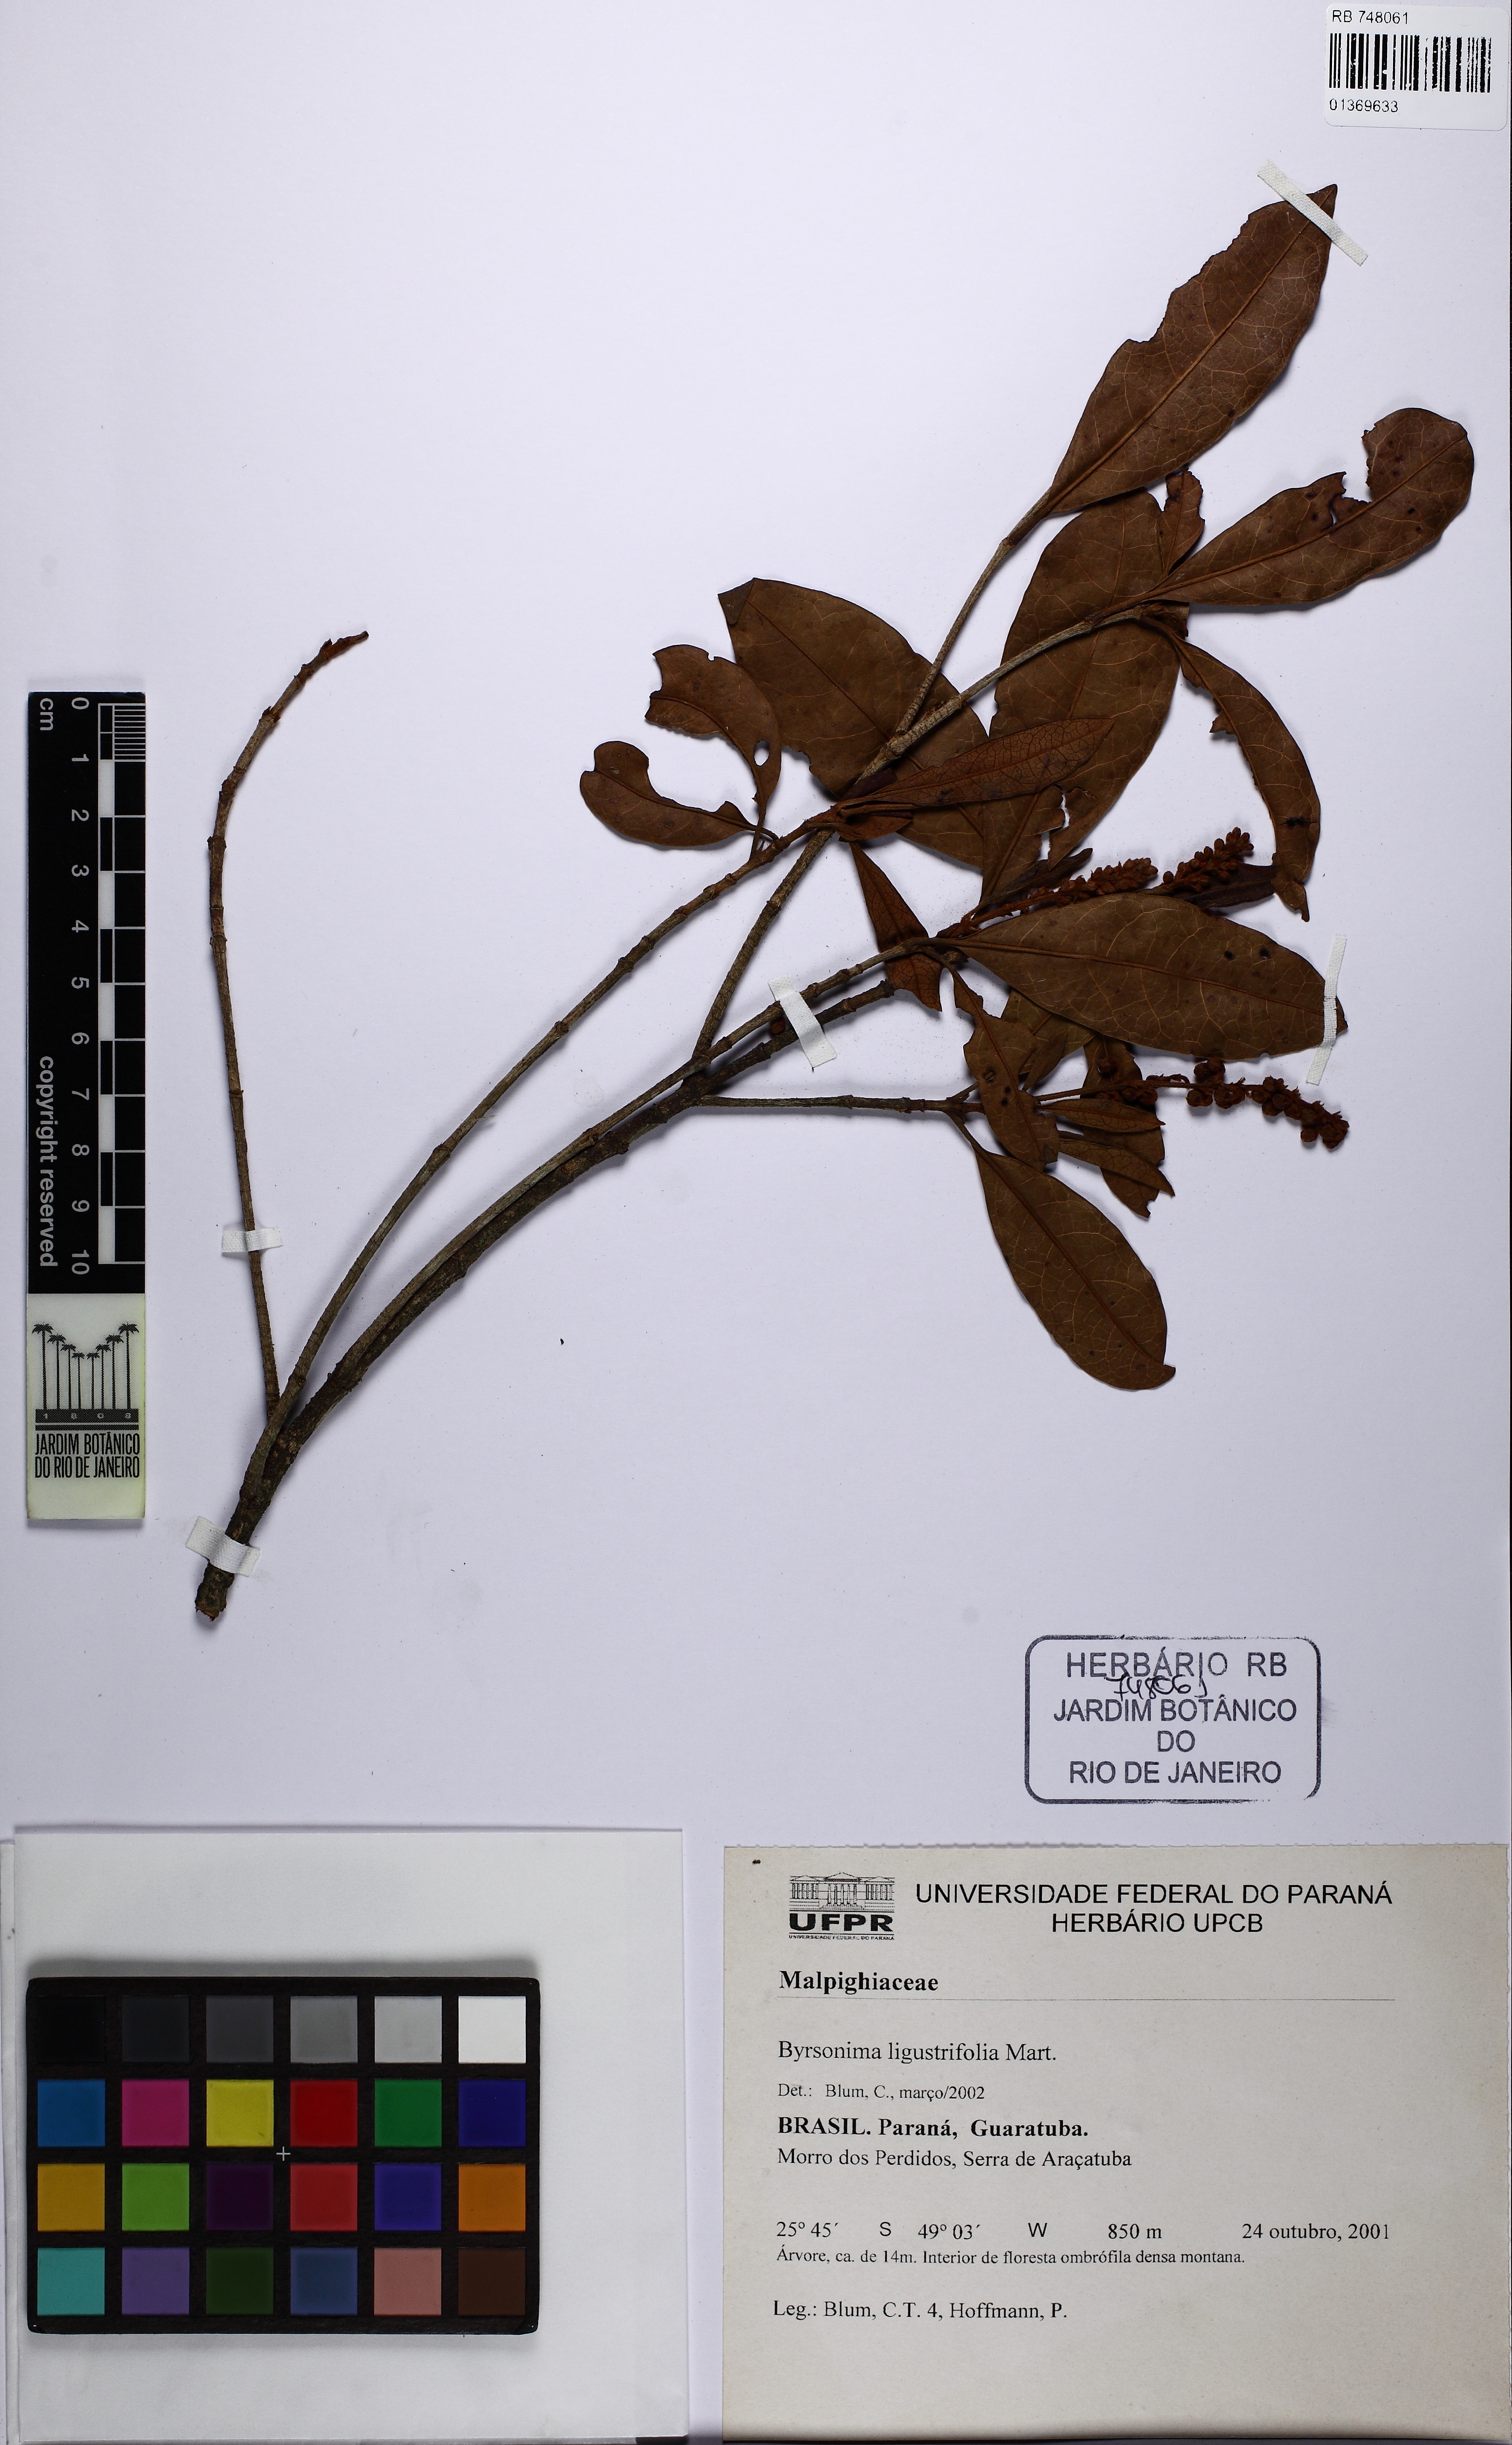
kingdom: Plantae
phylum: Tracheophyta
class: Magnoliopsida
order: Malpighiales
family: Malpighiaceae
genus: Byrsonima
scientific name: Byrsonima ligustrifolia
